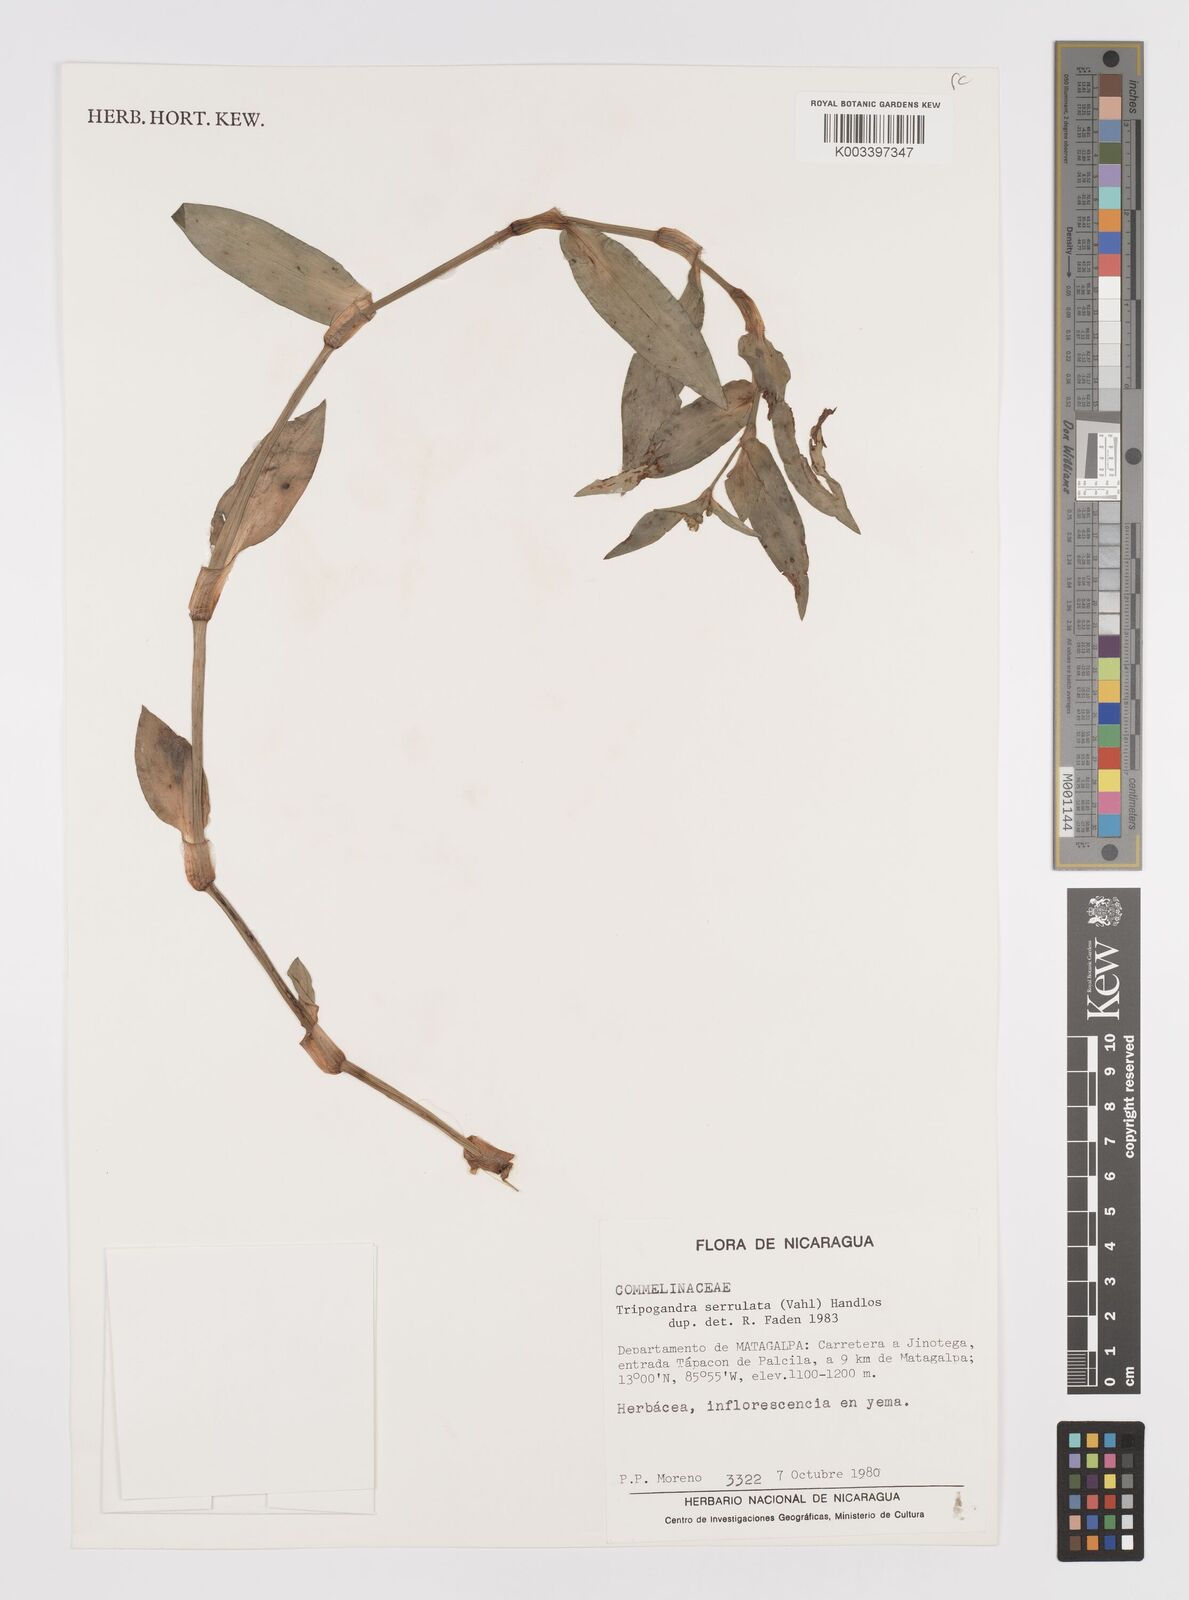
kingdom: Plantae
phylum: Tracheophyta
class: Liliopsida
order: Commelinales
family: Commelinaceae
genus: Callisia
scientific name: Callisia serrulata
